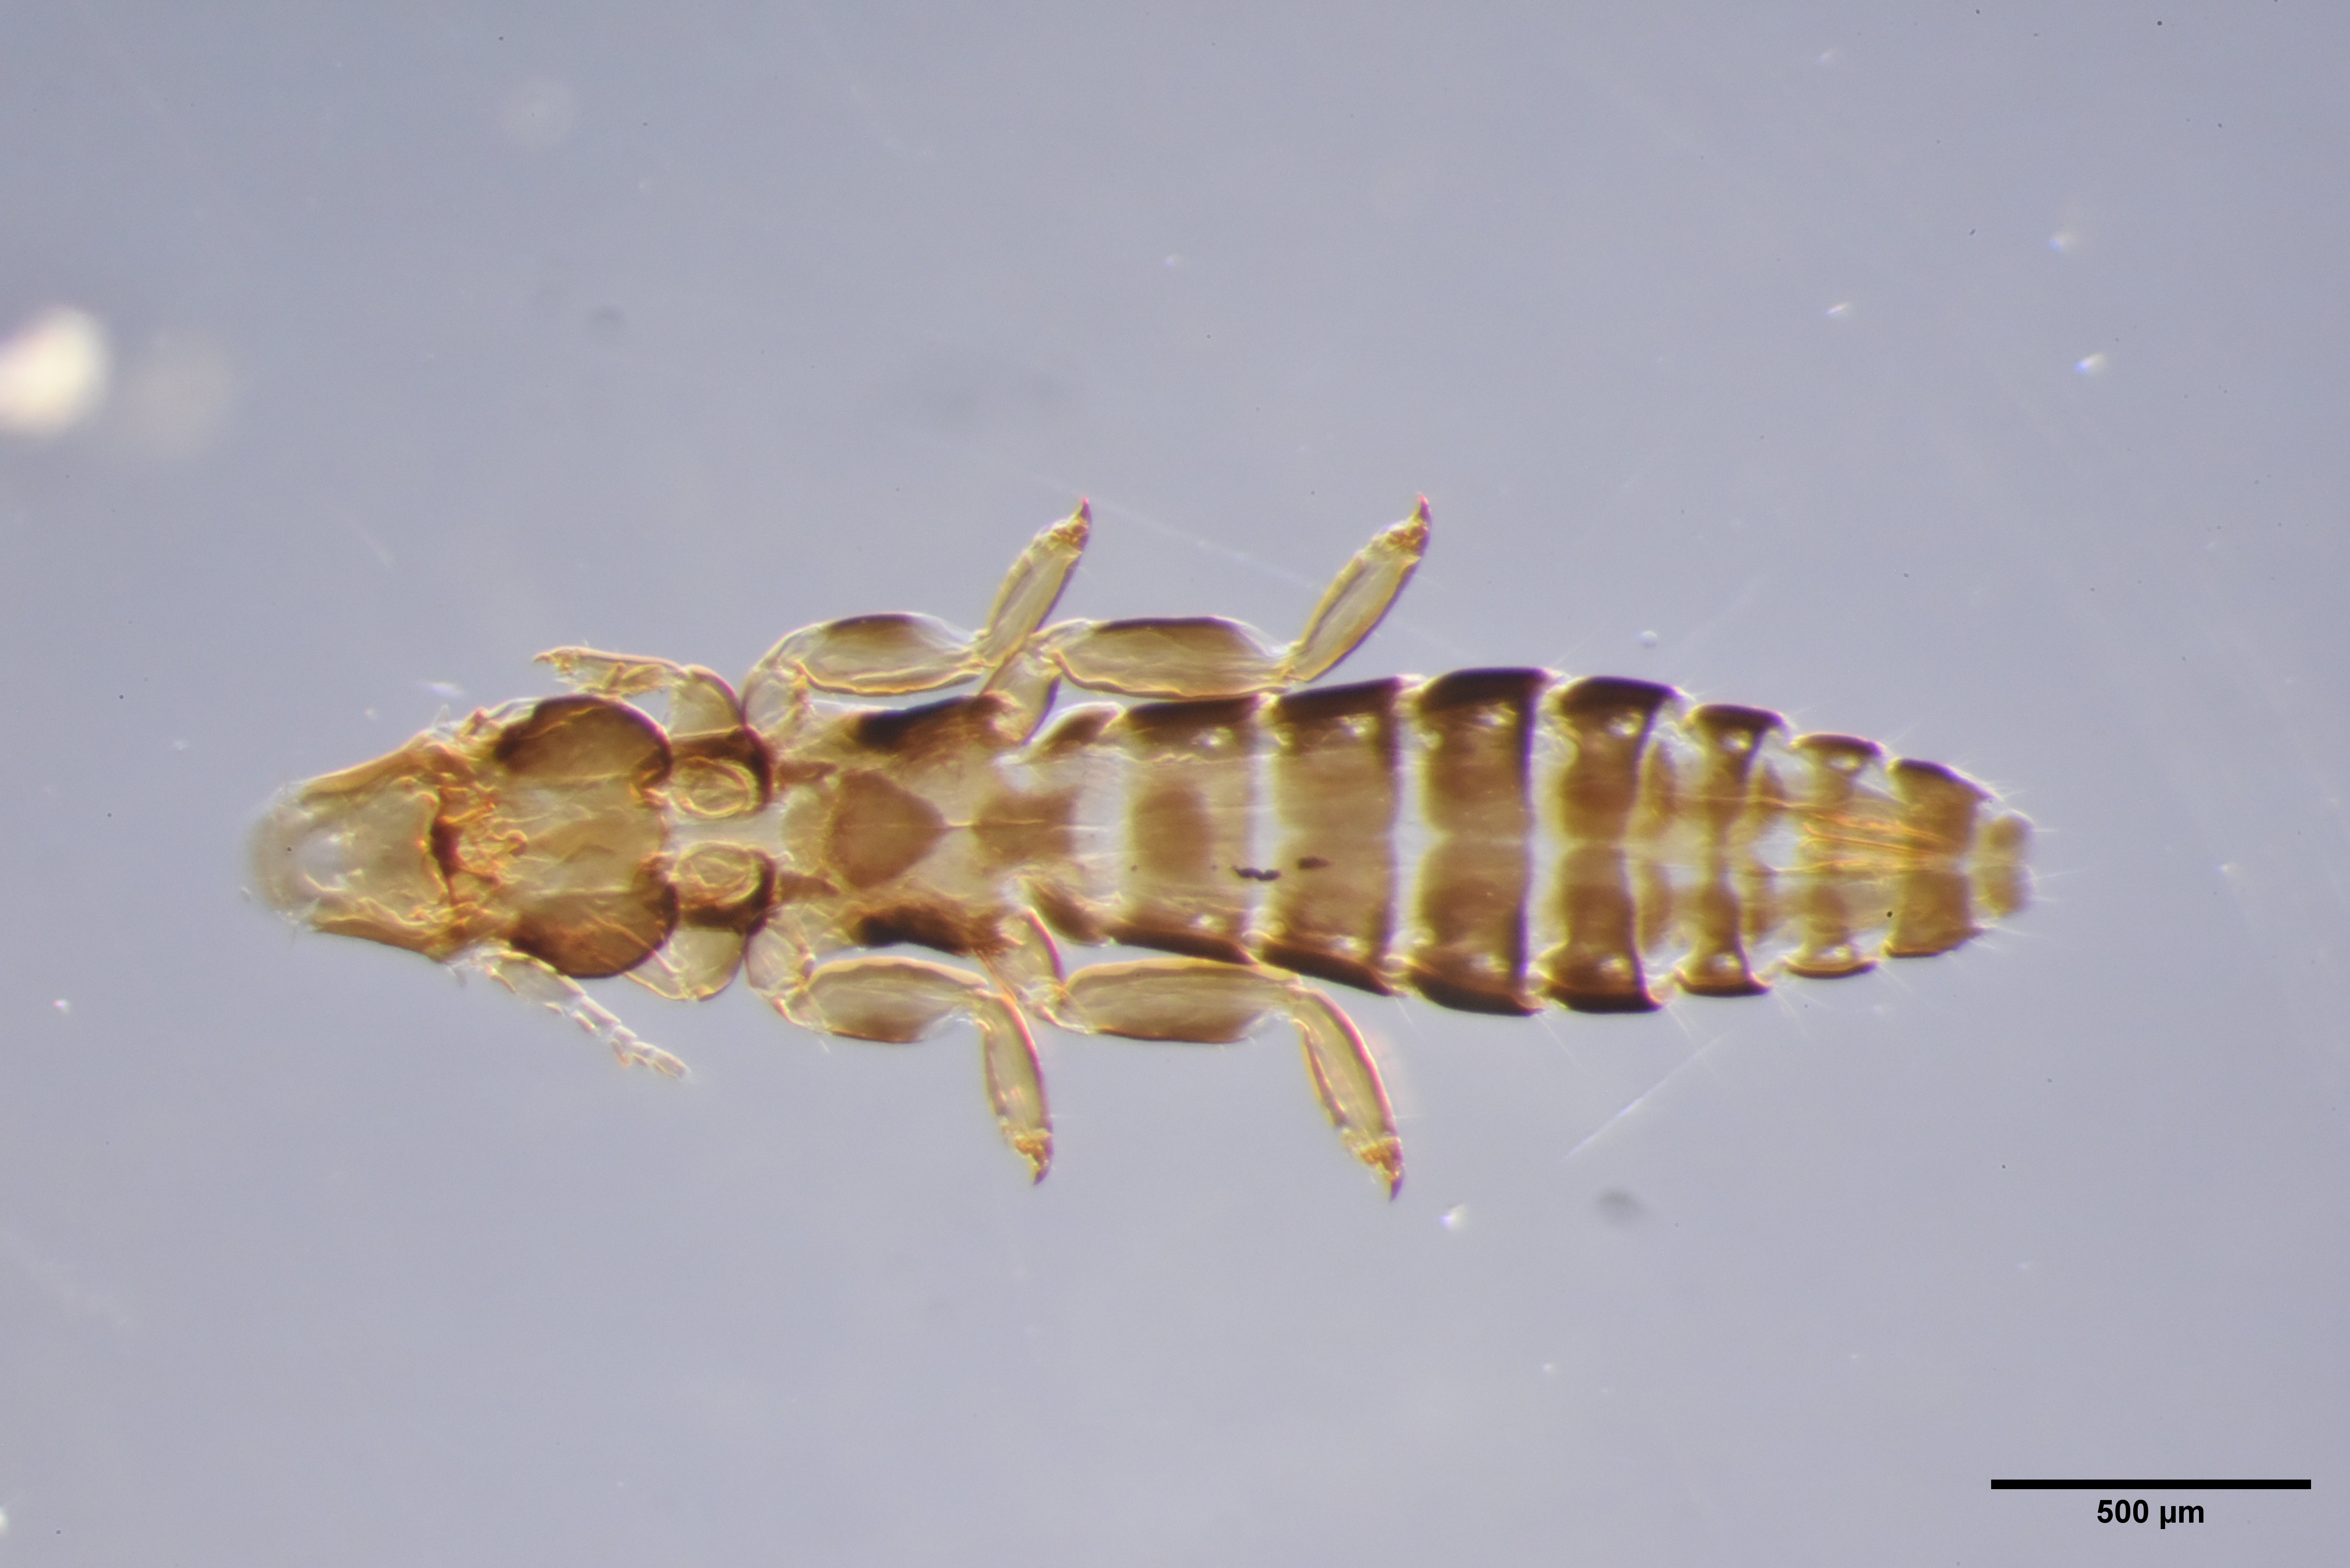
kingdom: Animalia
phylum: Arthropoda
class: Insecta
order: Psocodea
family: Philopteridae
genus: Anaticola
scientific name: Anaticola crassicorne
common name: Louse
